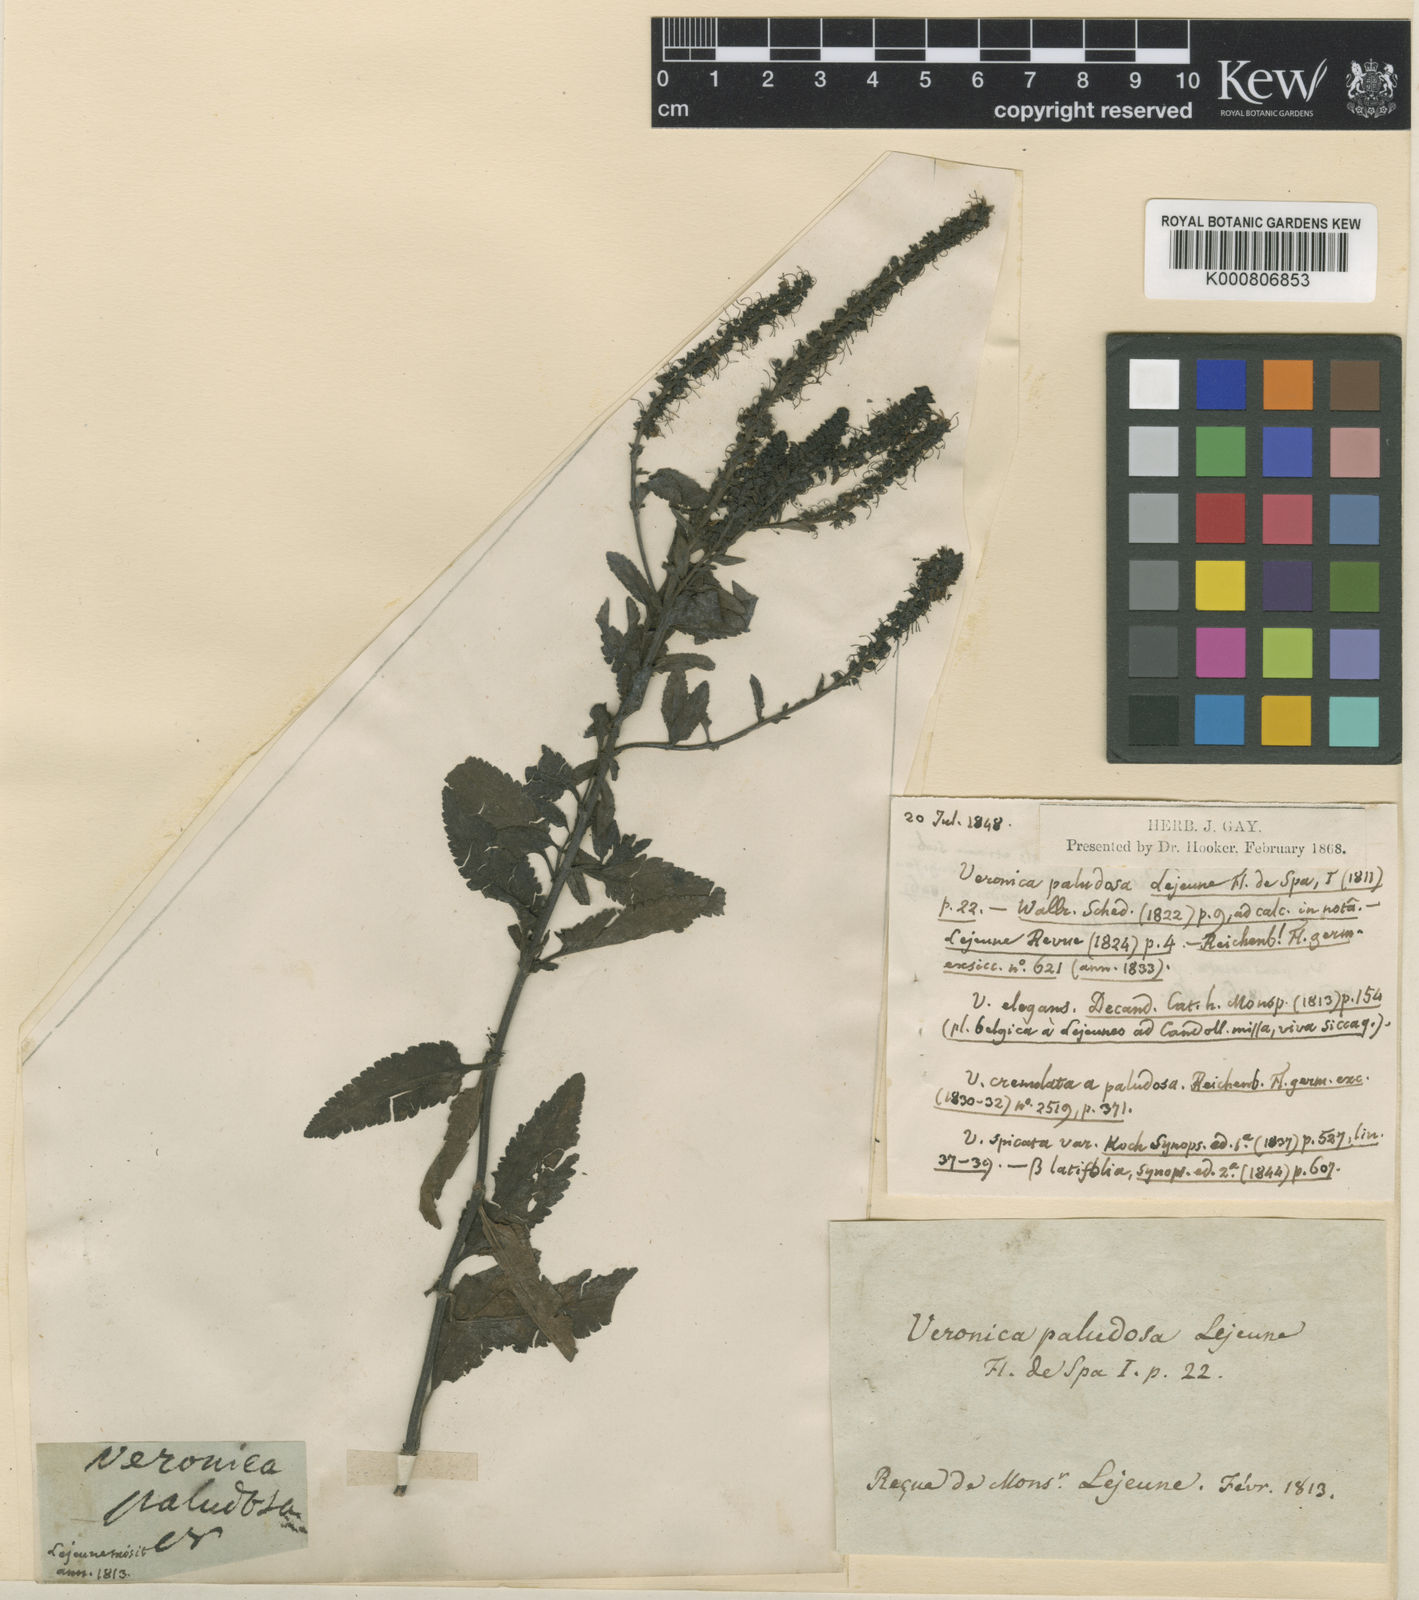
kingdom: Plantae
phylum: Tracheophyta
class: Magnoliopsida
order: Lamiales
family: Plantaginaceae
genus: Veronica
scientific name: Veronica maritima
